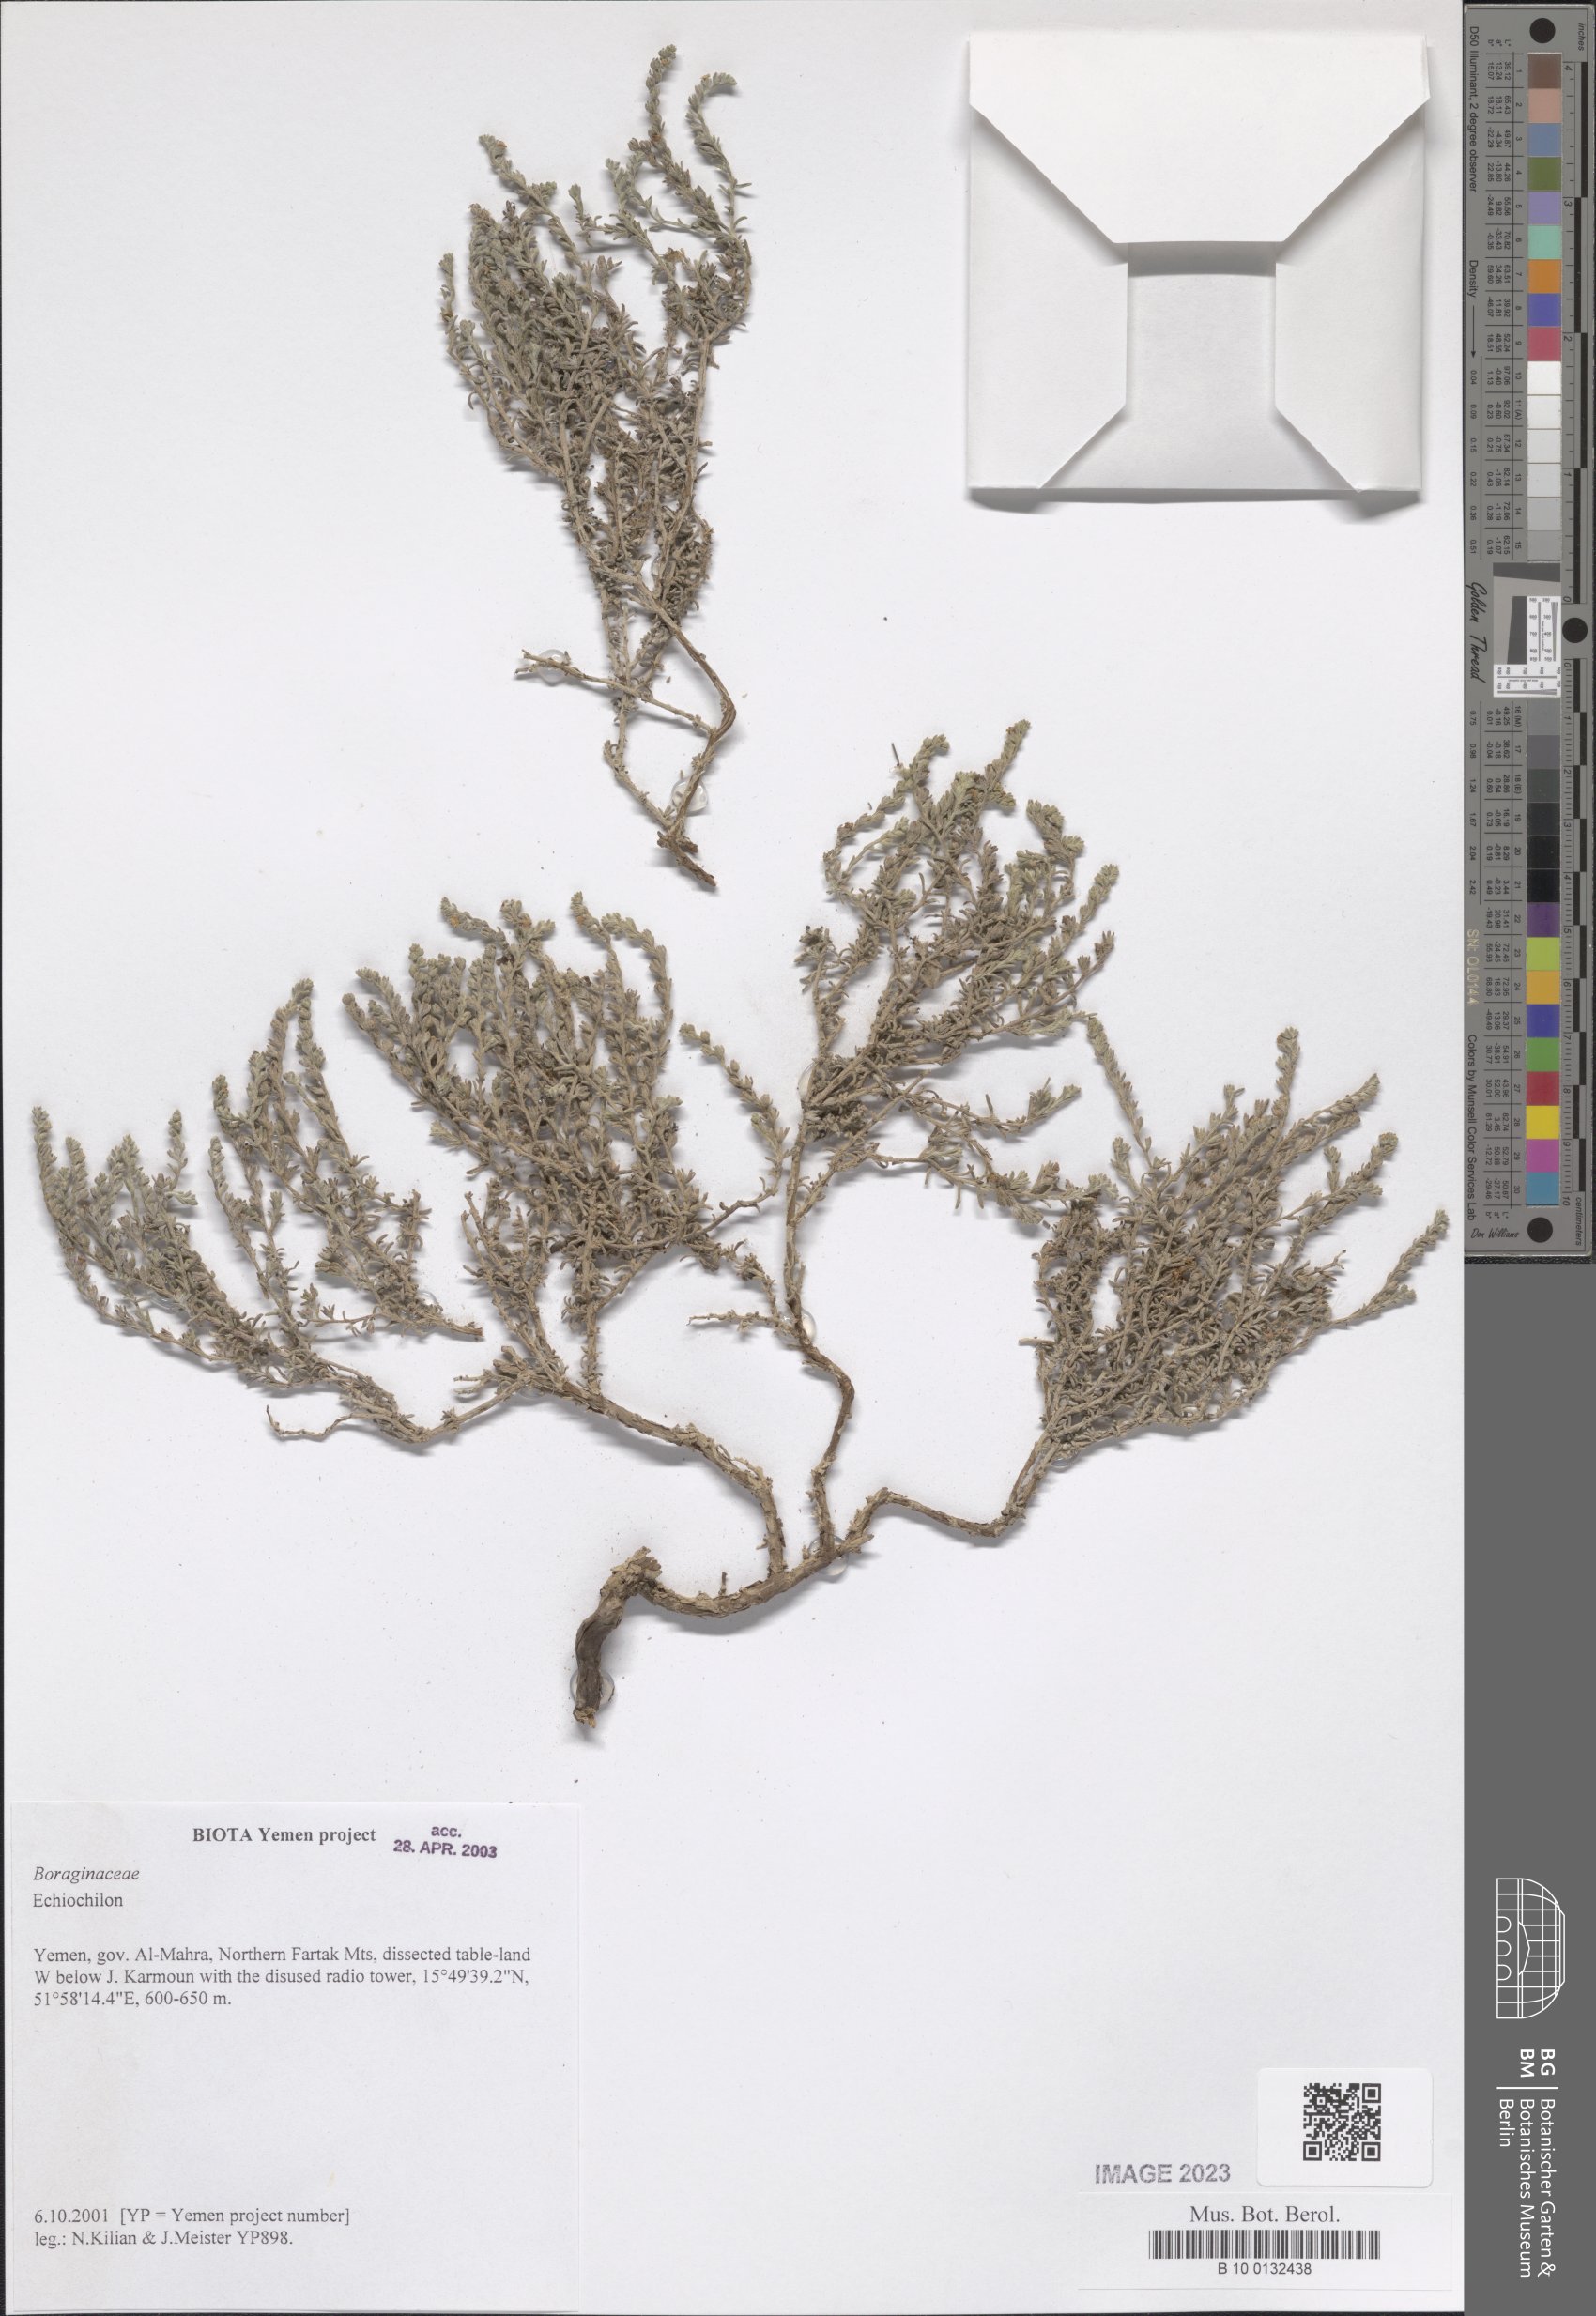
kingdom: Plantae
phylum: Tracheophyta
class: Magnoliopsida
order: Boraginales
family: Boraginaceae
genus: Echiochilon
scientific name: Echiochilon
